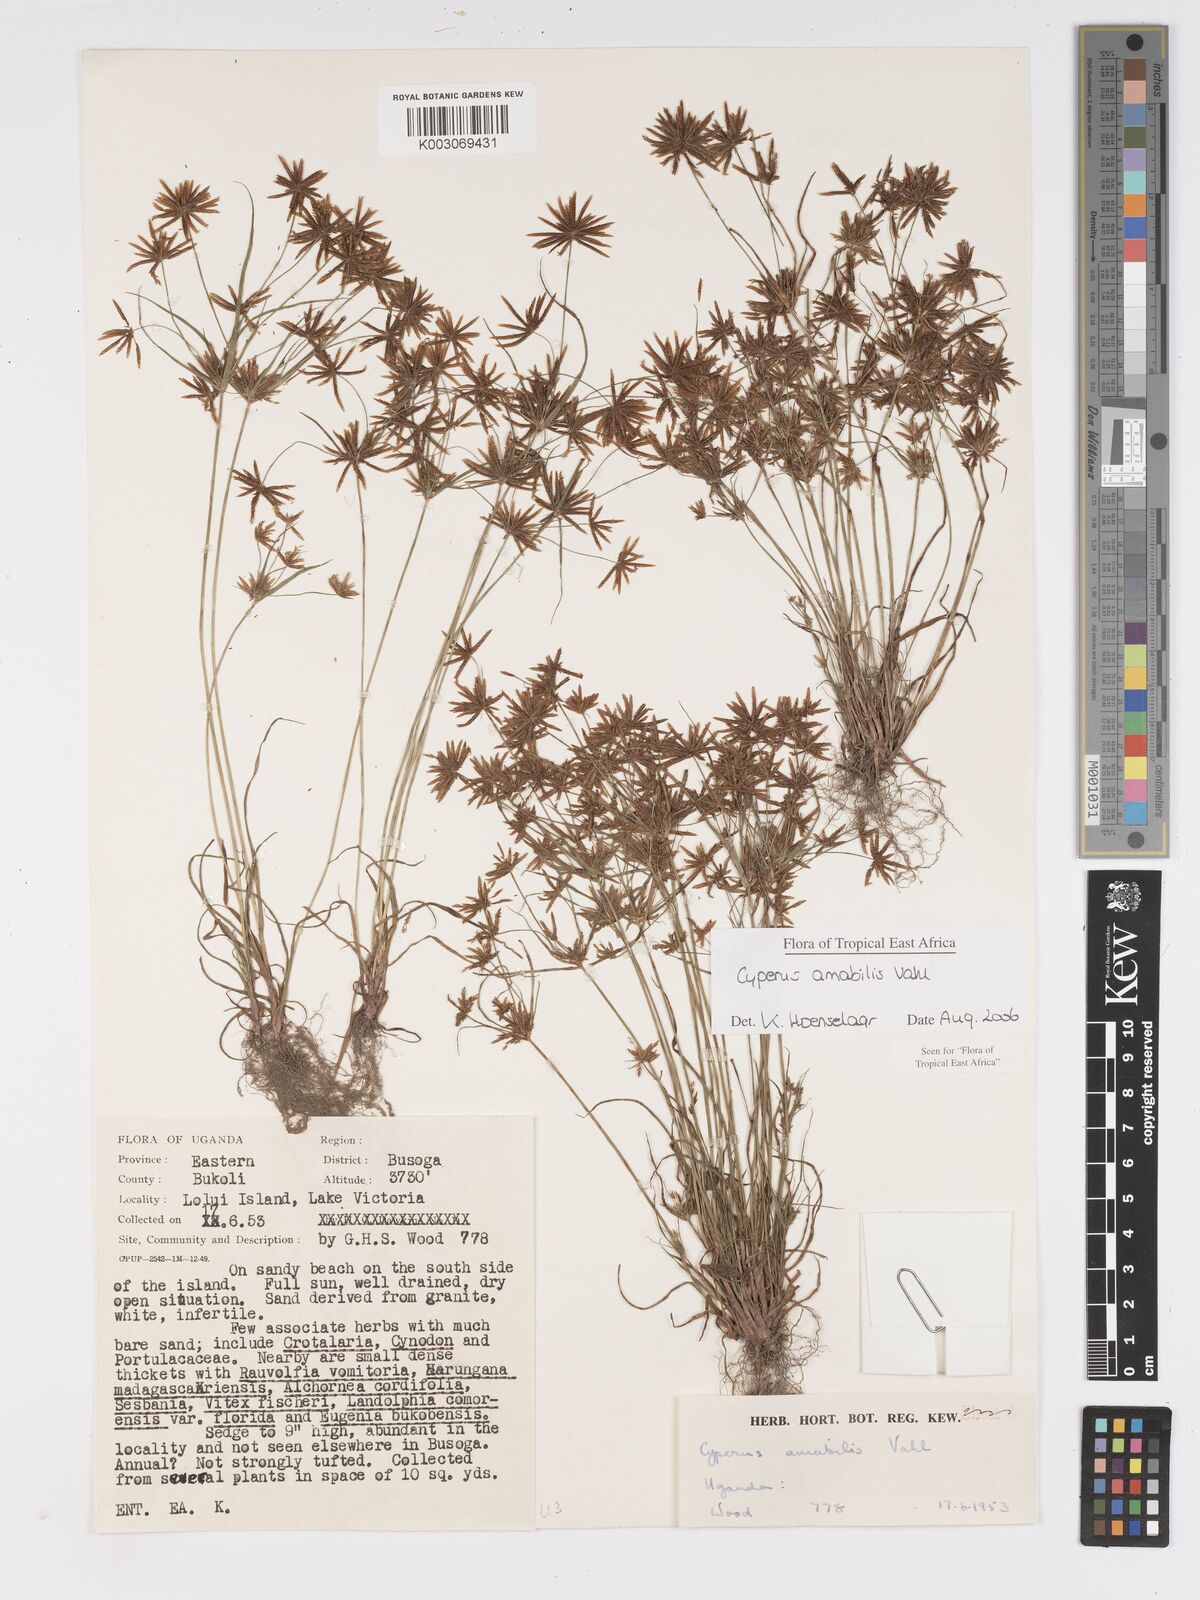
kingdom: Plantae
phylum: Tracheophyta
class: Liliopsida
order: Poales
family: Cyperaceae
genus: Cyperus
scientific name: Cyperus amabilis
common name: Foothill flat sedge
